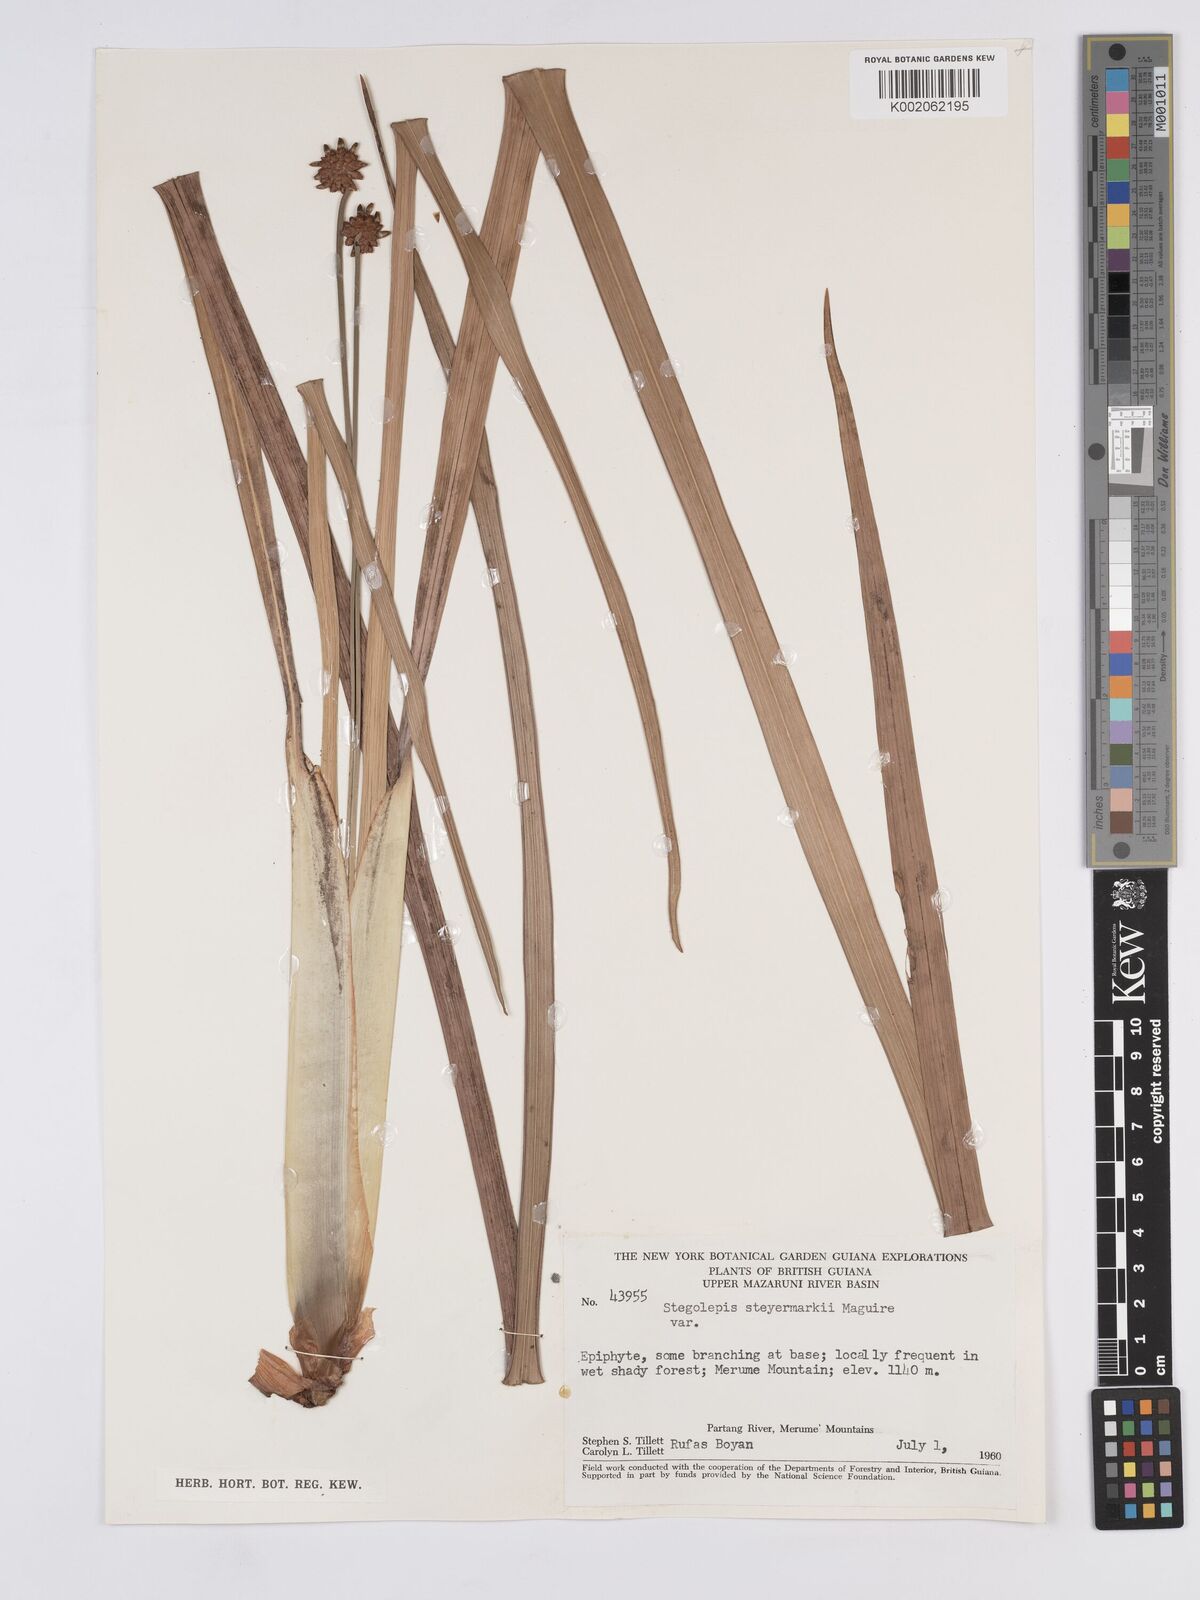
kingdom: Plantae
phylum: Tracheophyta
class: Liliopsida
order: Poales
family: Rapateaceae
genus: Stegolepis
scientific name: Stegolepis steyermarkii
